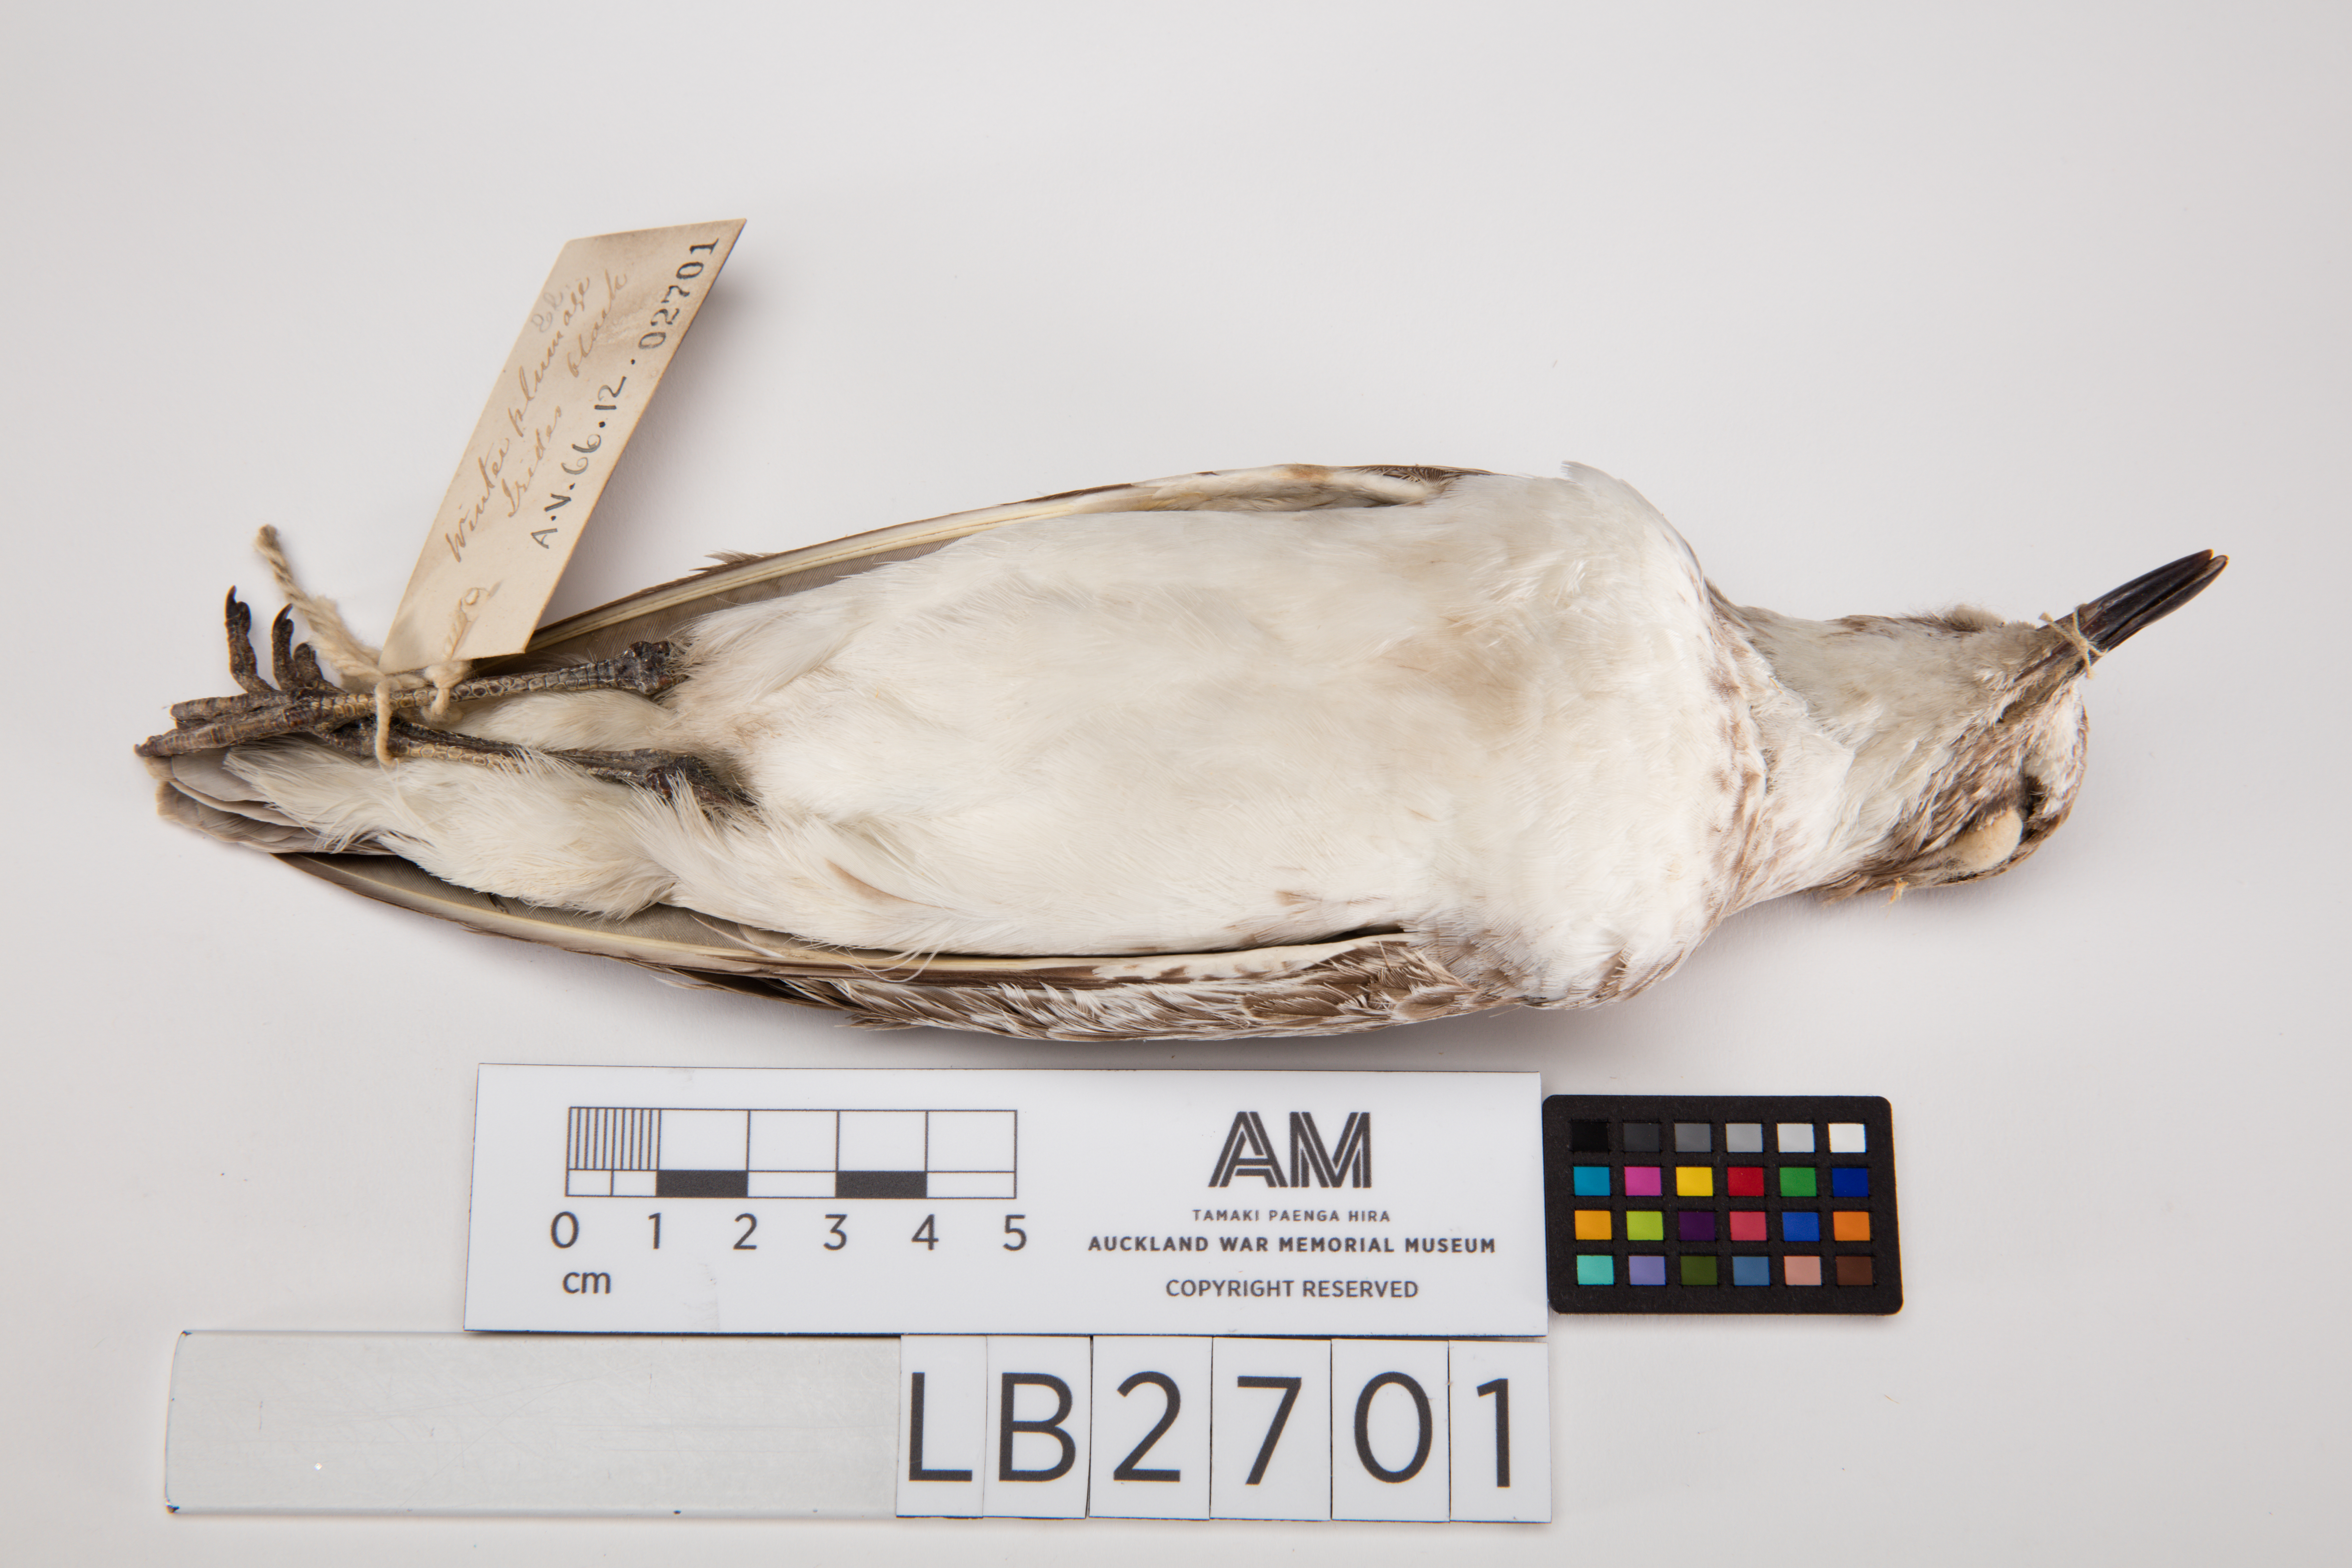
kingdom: Animalia
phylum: Chordata
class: Aves
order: Charadriiformes
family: Charadriidae
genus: Charadrius
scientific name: Charadrius obscurus
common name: New zealand plover
